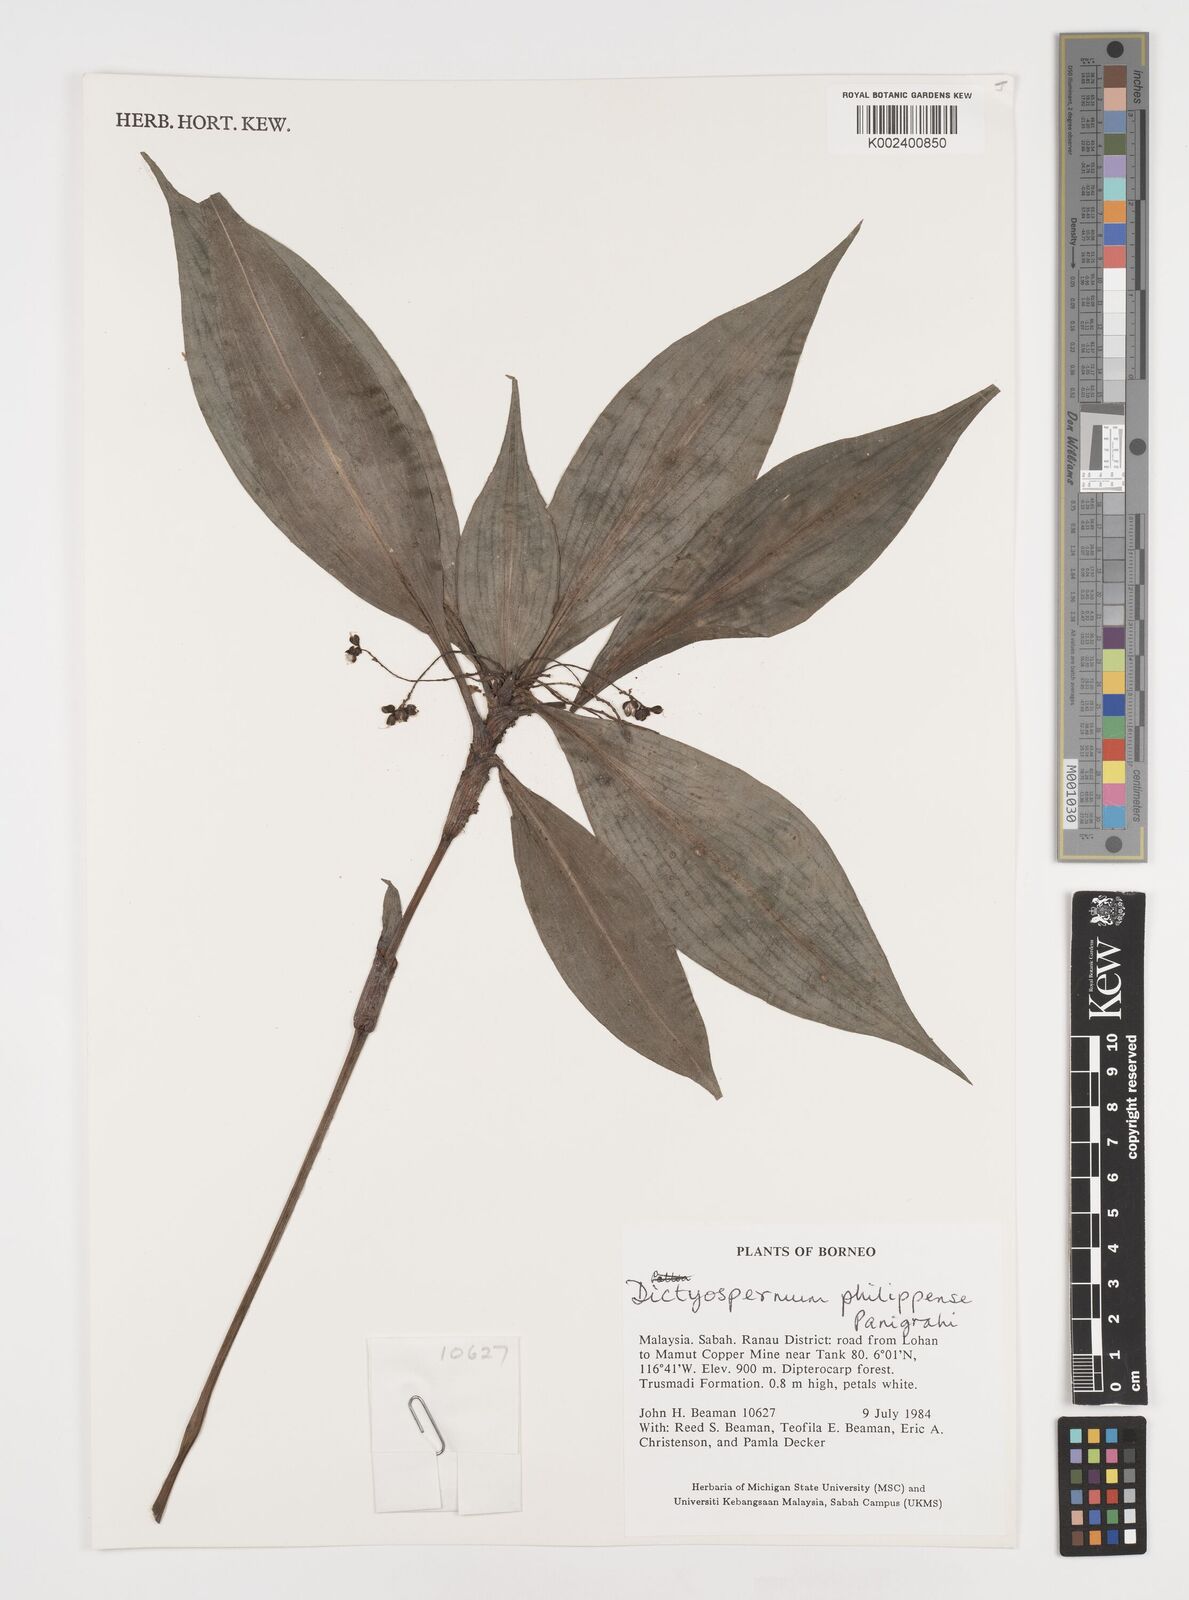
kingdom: Plantae
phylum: Tracheophyta
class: Liliopsida
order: Commelinales
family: Commelinaceae
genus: Tricarpelema
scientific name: Tricarpelema philippense
